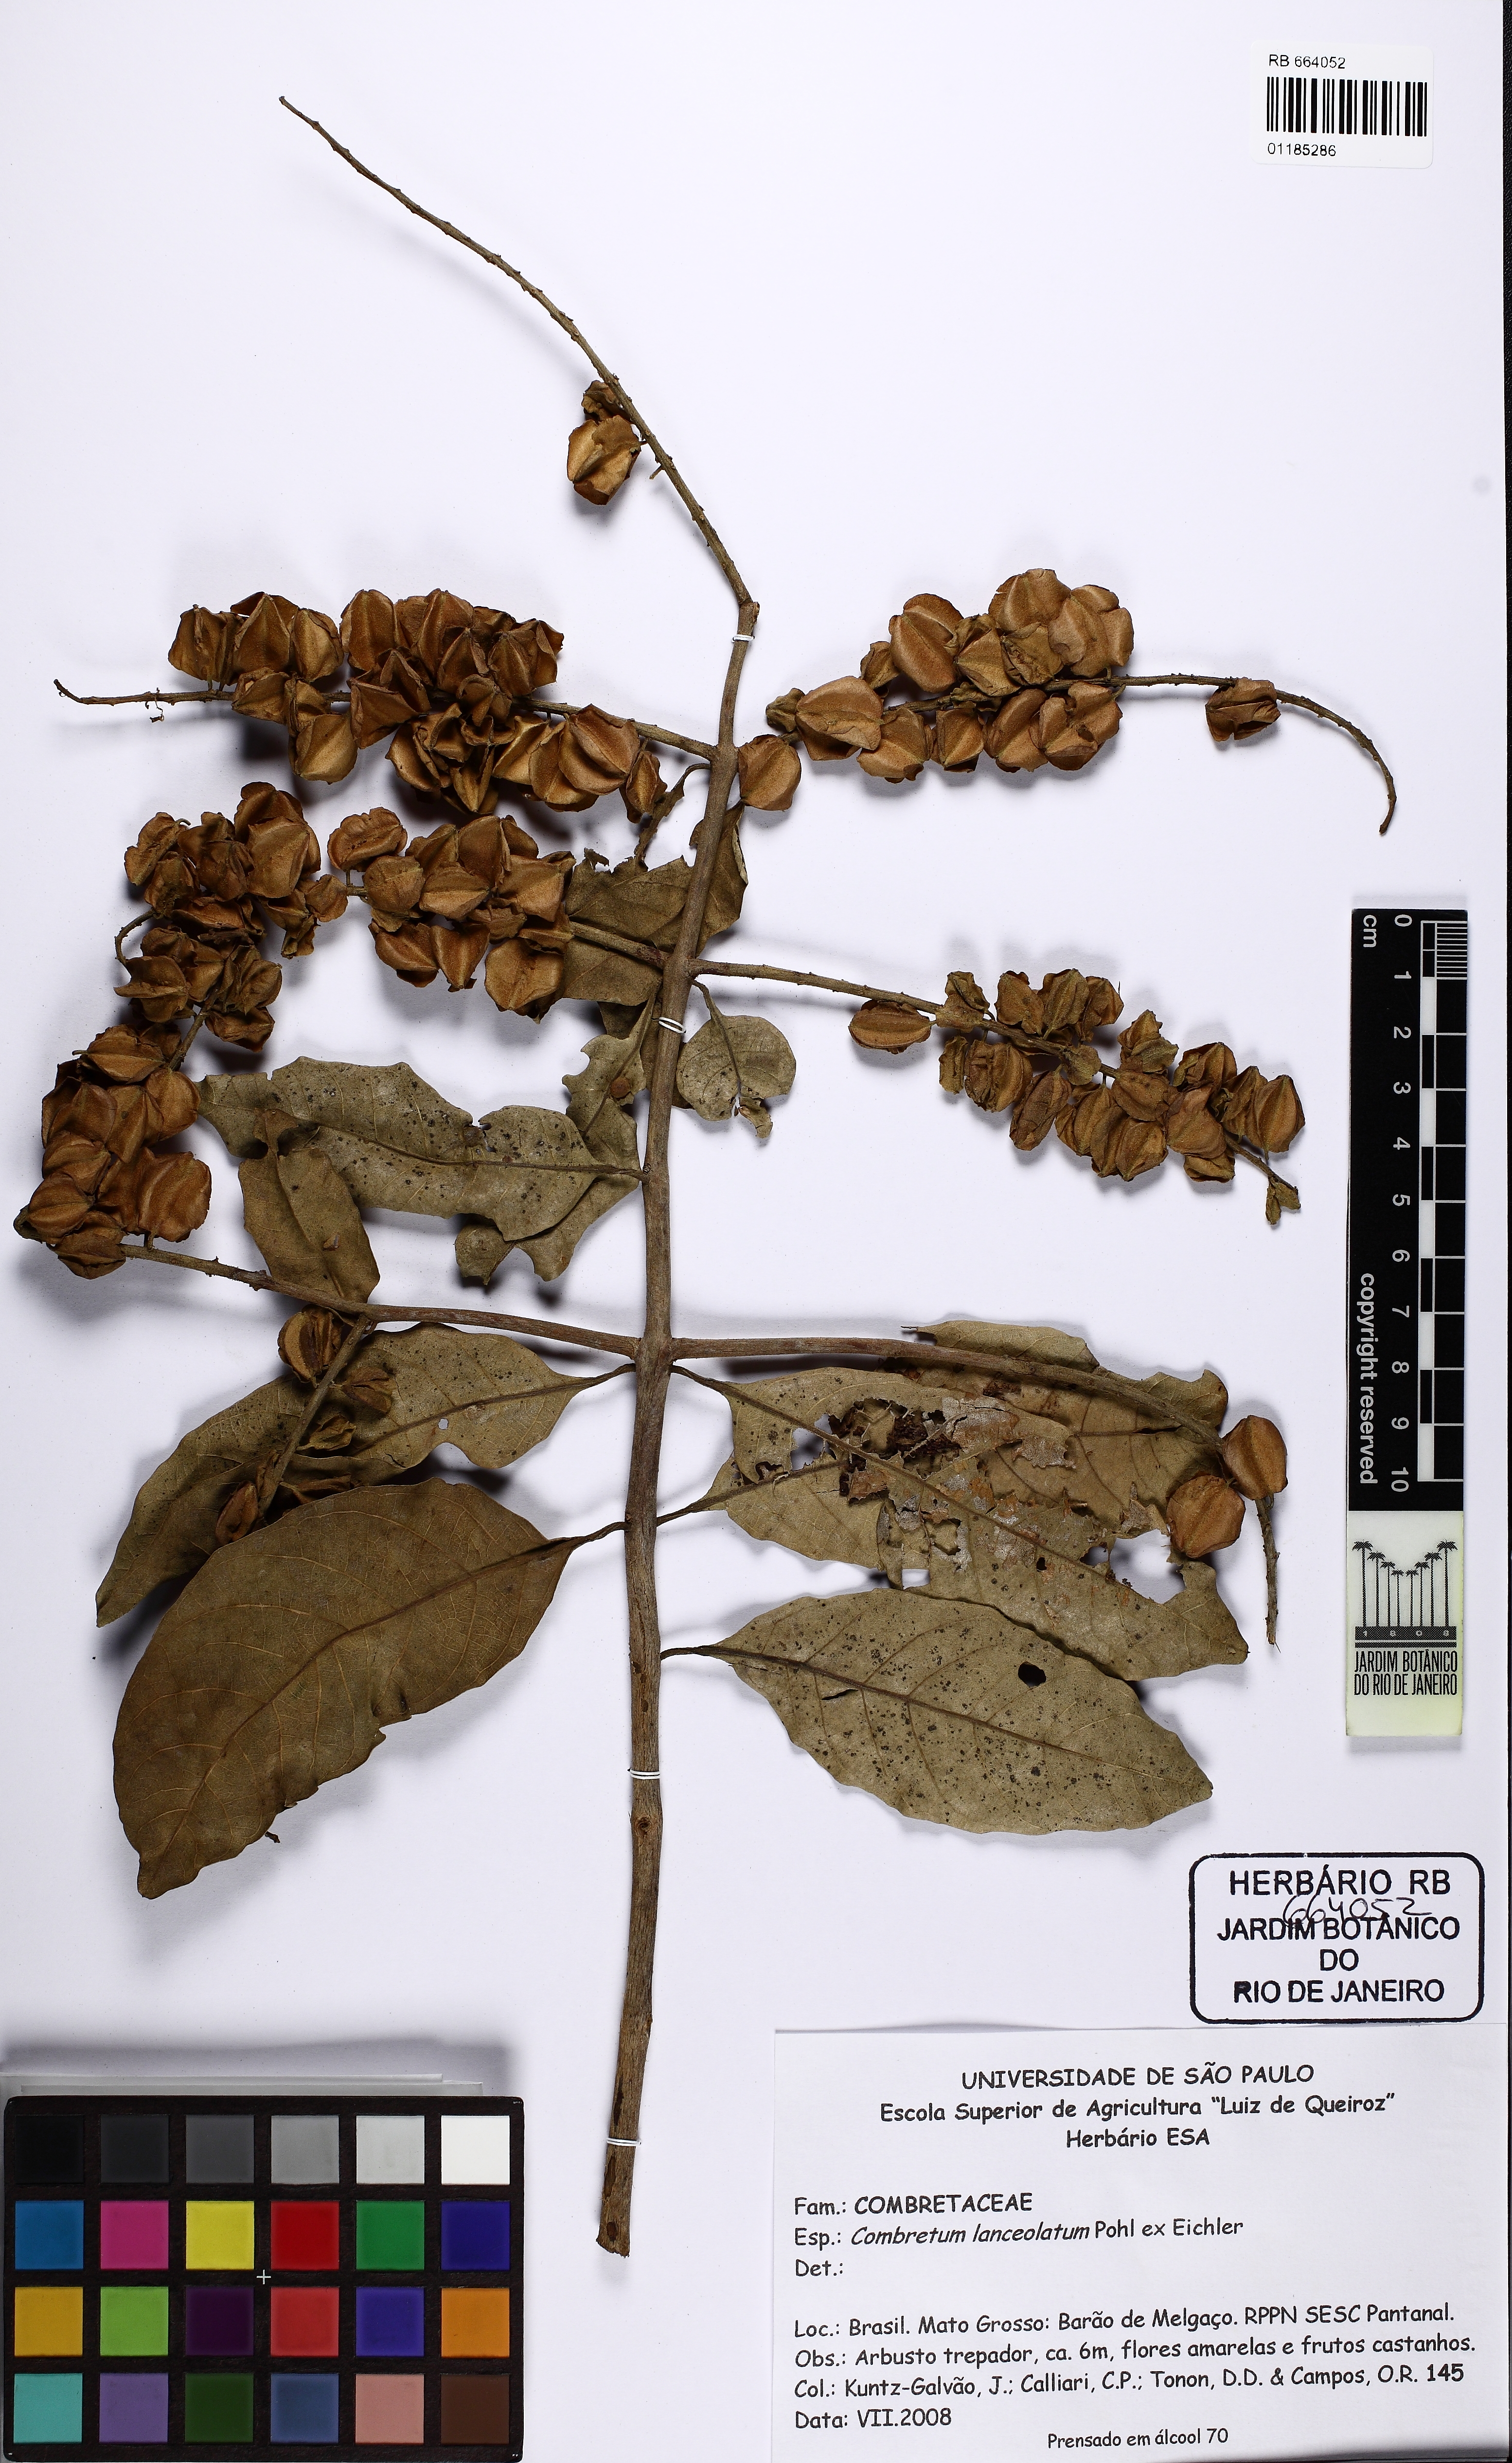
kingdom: Plantae
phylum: Tracheophyta
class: Magnoliopsida
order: Myrtales
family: Combretaceae
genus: Combretum
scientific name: Combretum lanceolatum
